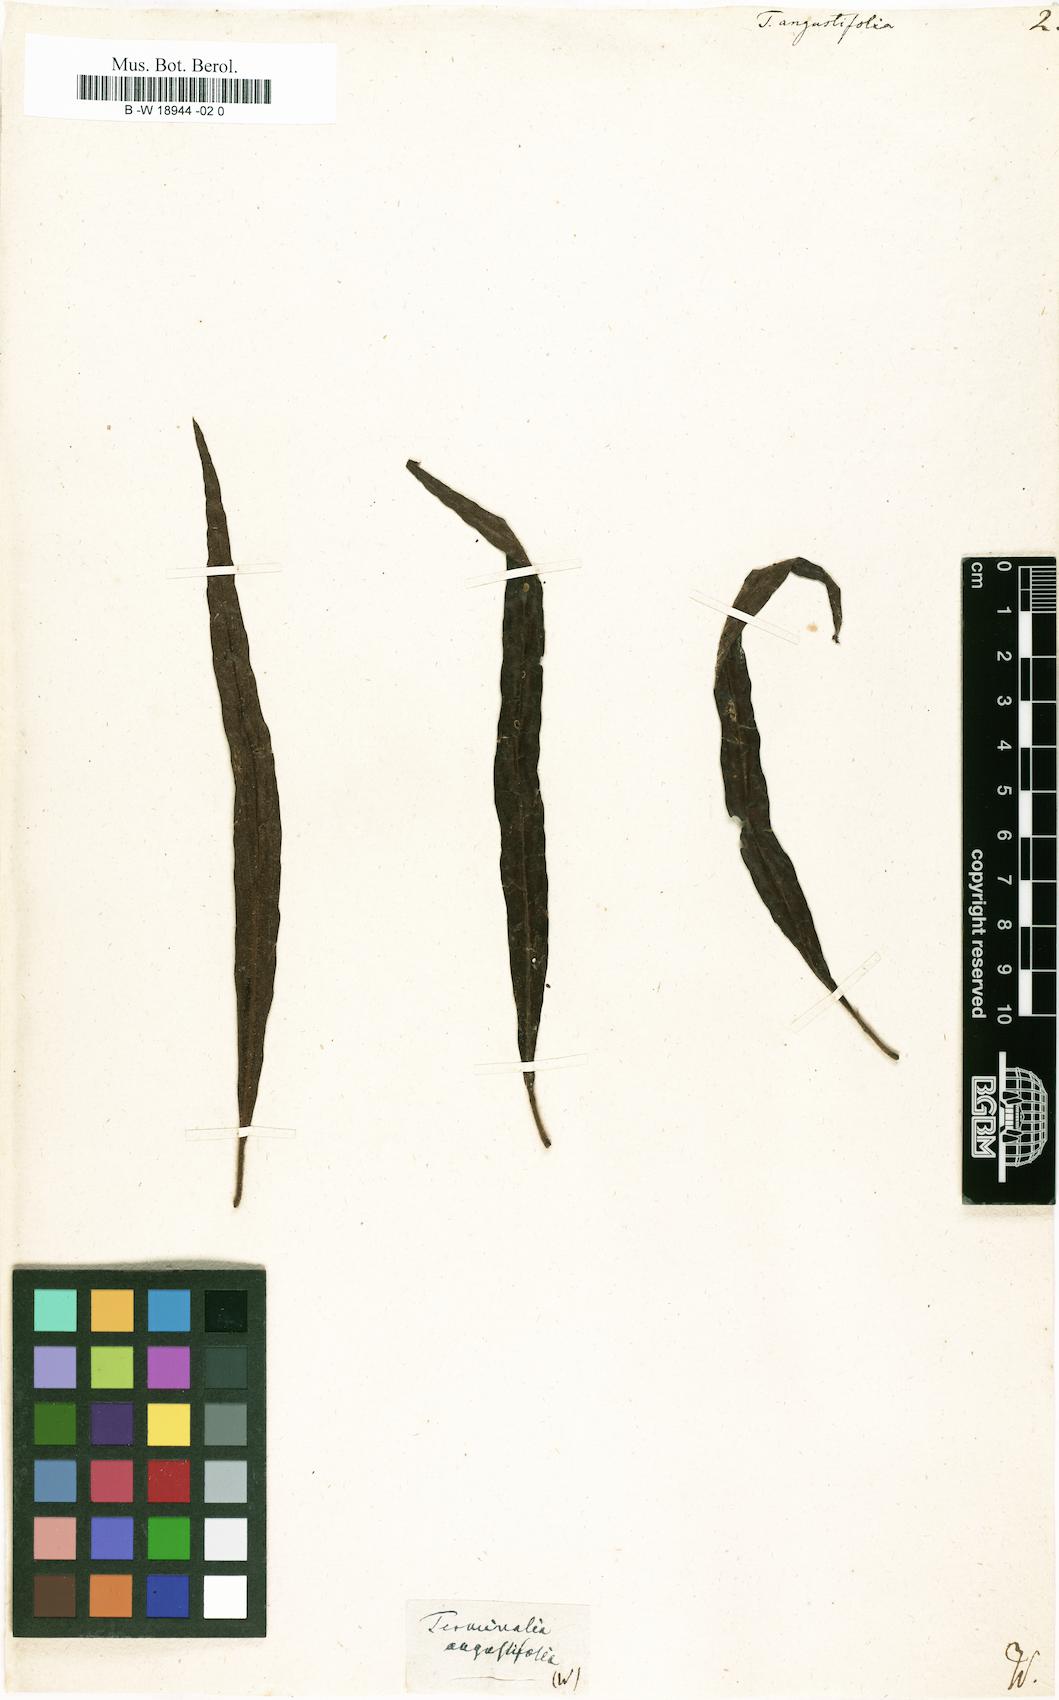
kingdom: Plantae
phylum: Tracheophyta
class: Magnoliopsida
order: Myrtales
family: Combretaceae
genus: Terminalia
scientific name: Terminalia
